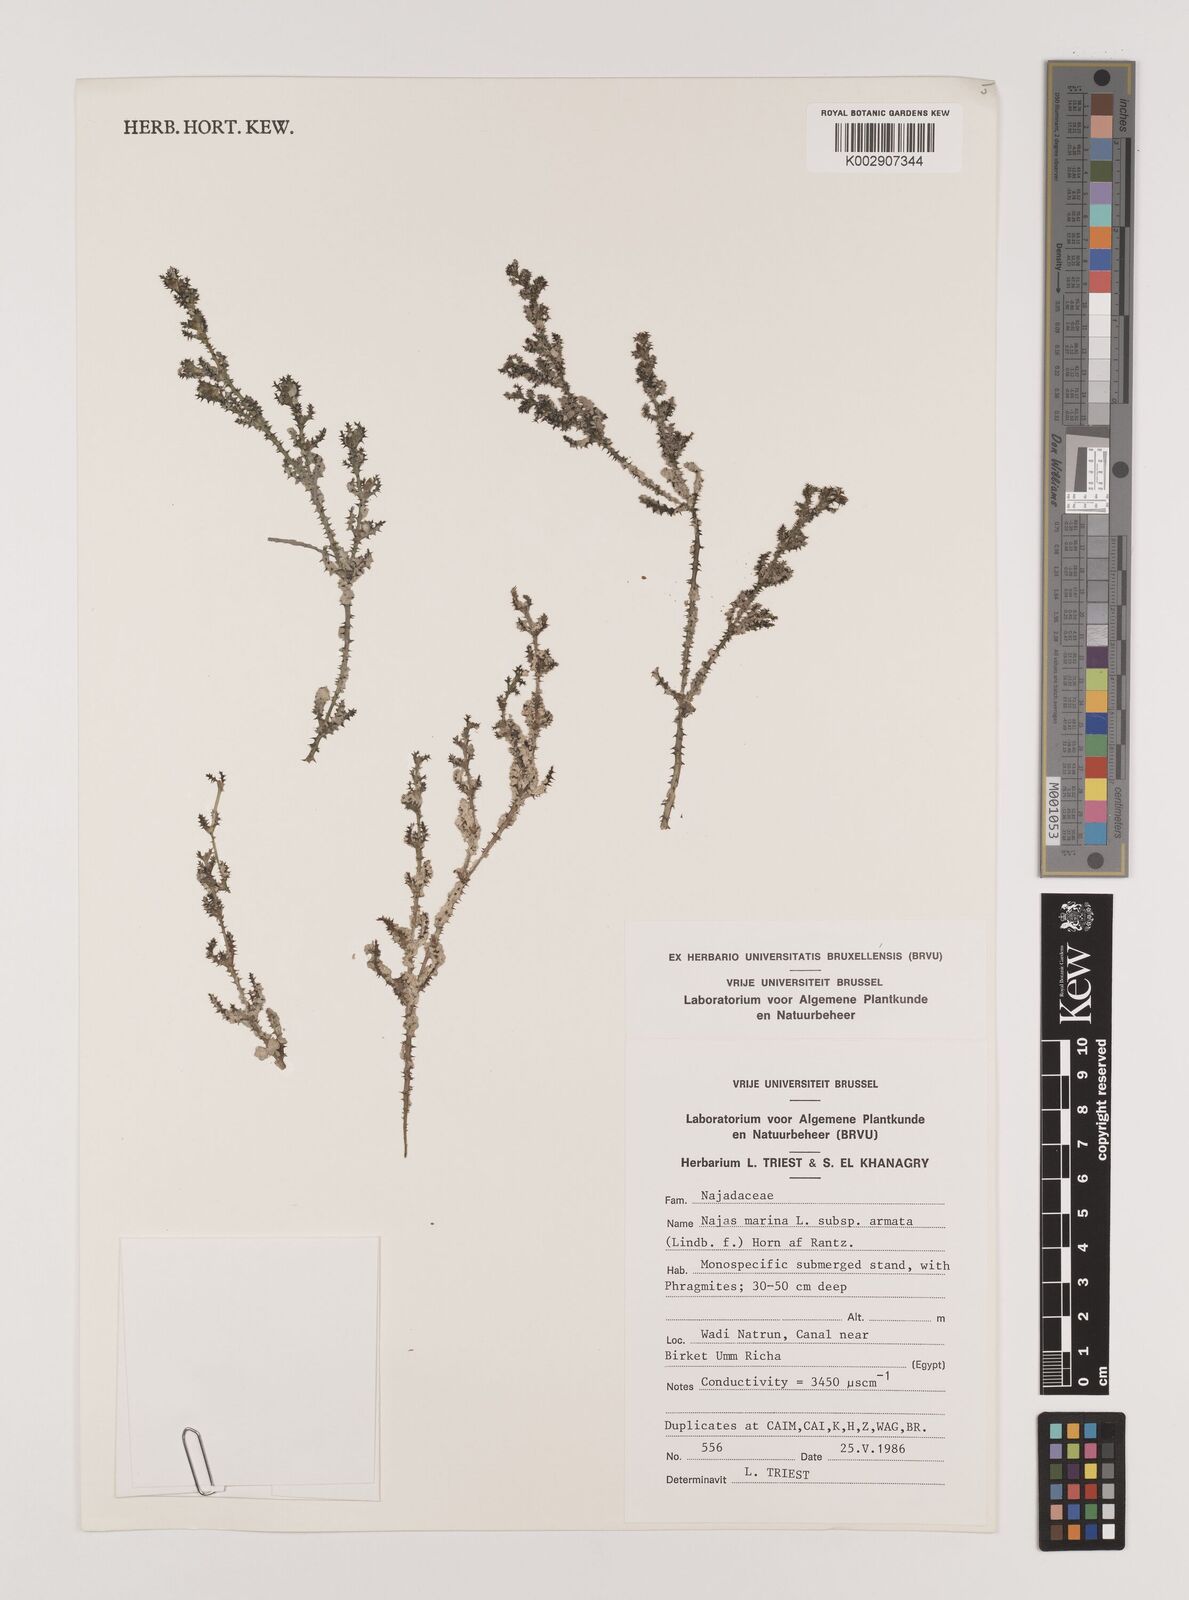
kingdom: Plantae
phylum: Tracheophyta
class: Liliopsida
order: Alismatales
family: Hydrocharitaceae
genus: Najas
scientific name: Najas marina
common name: Holly-leaved naiad
